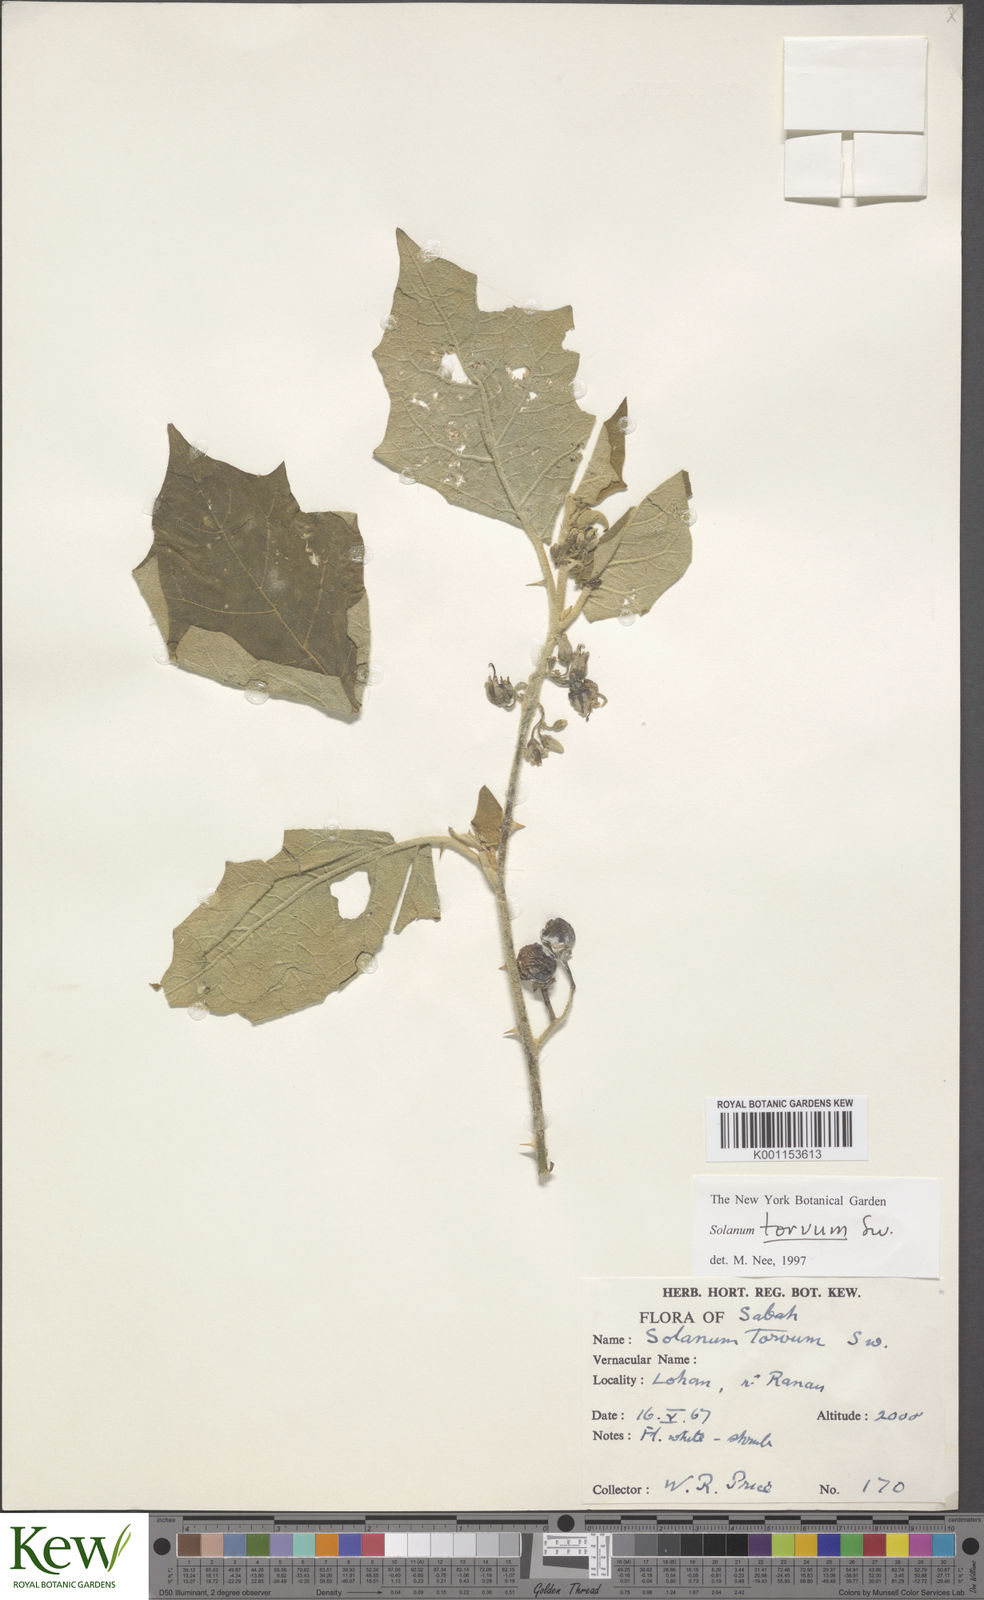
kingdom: Plantae
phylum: Tracheophyta
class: Magnoliopsida
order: Solanales
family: Solanaceae
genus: Solanum
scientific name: Solanum torvum
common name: Turkey berry
